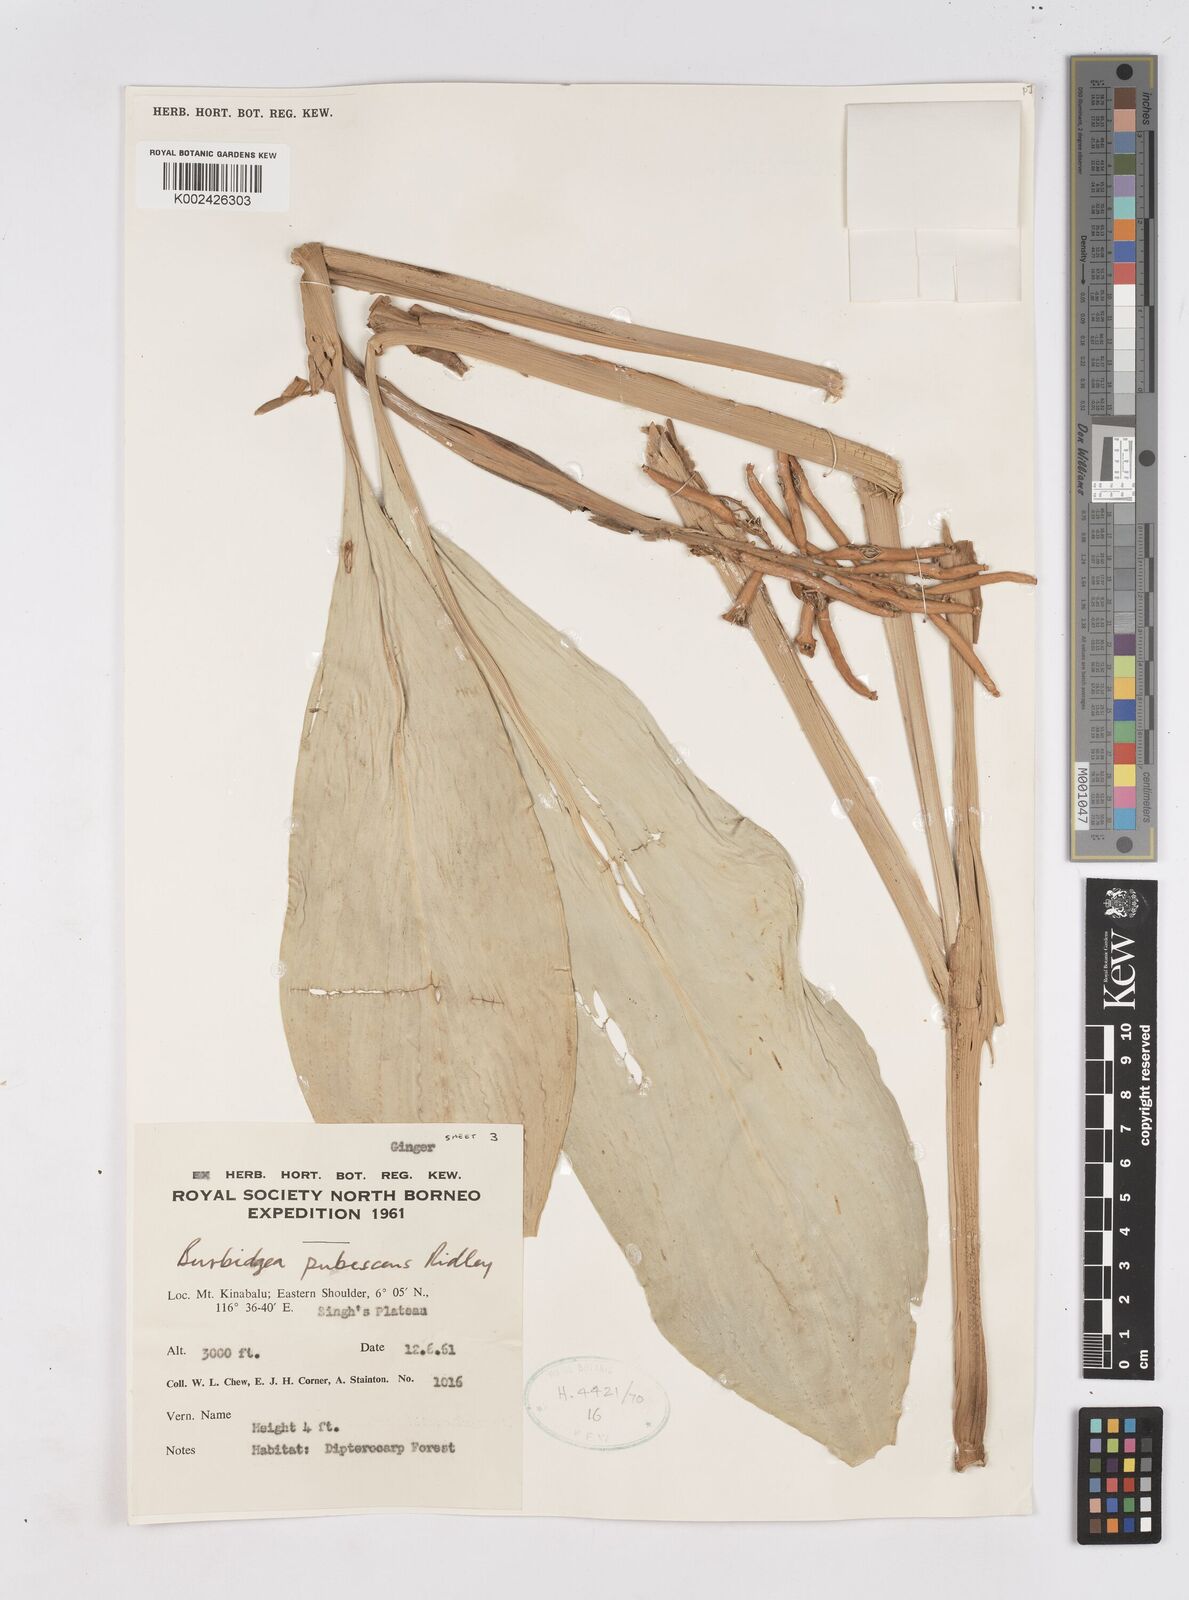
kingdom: Plantae
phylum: Tracheophyta
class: Liliopsida
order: Zingiberales
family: Zingiberaceae
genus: Burbidgea
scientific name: Burbidgea schizocheila
